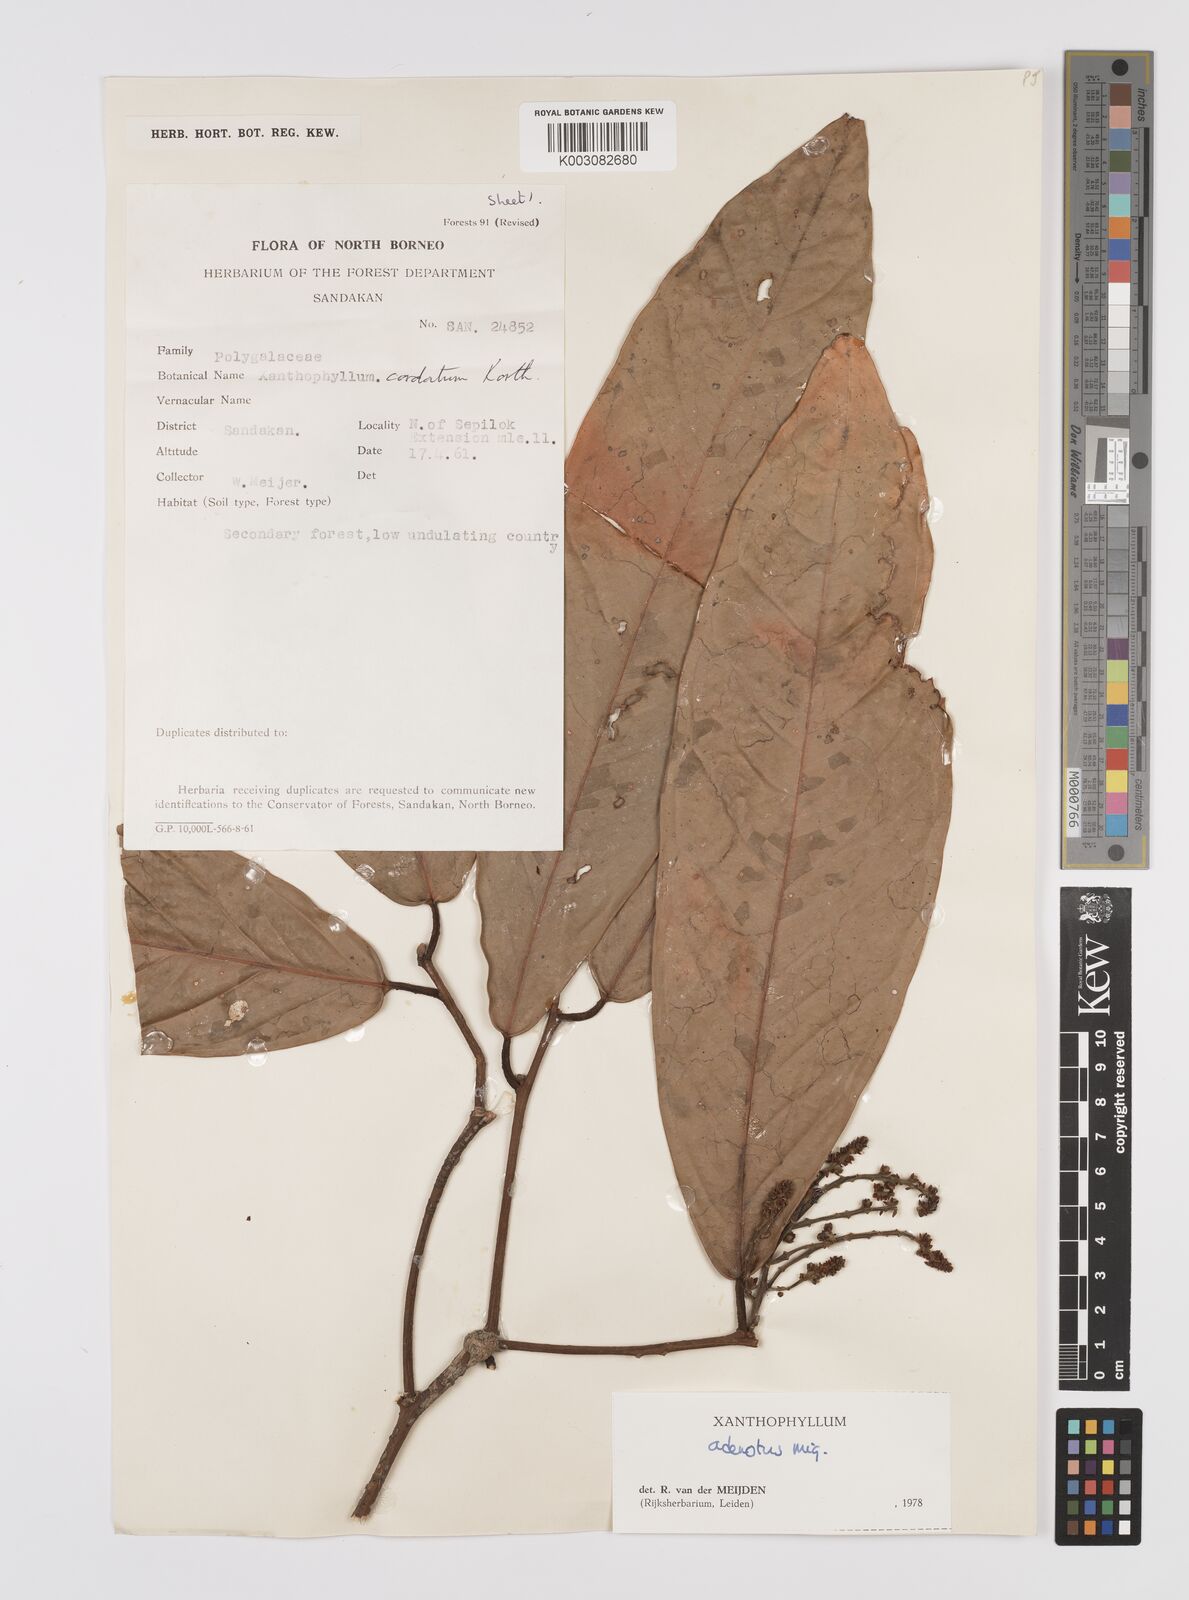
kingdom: Plantae
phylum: Tracheophyta
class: Magnoliopsida
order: Fabales
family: Polygalaceae
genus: Xanthophyllum
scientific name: Xanthophyllum adenotus
